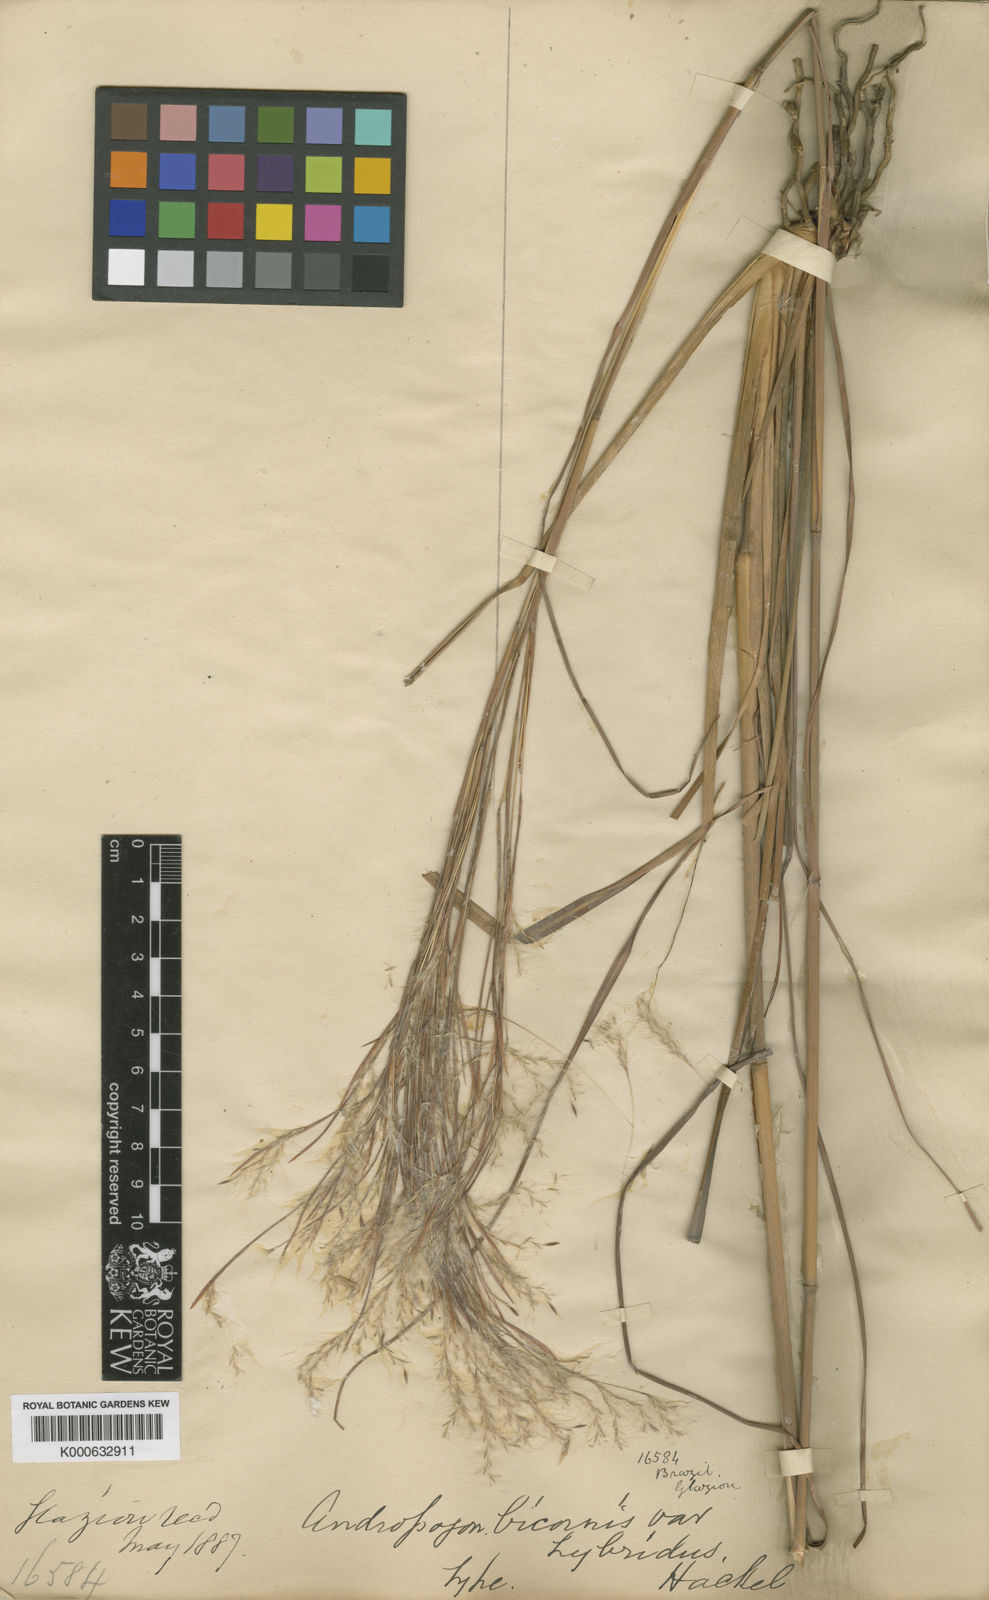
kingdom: Plantae
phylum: Tracheophyta
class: Liliopsida
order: Poales
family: Poaceae
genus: Andropogon
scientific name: Andropogon bicornis
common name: West indian foxtail grass
